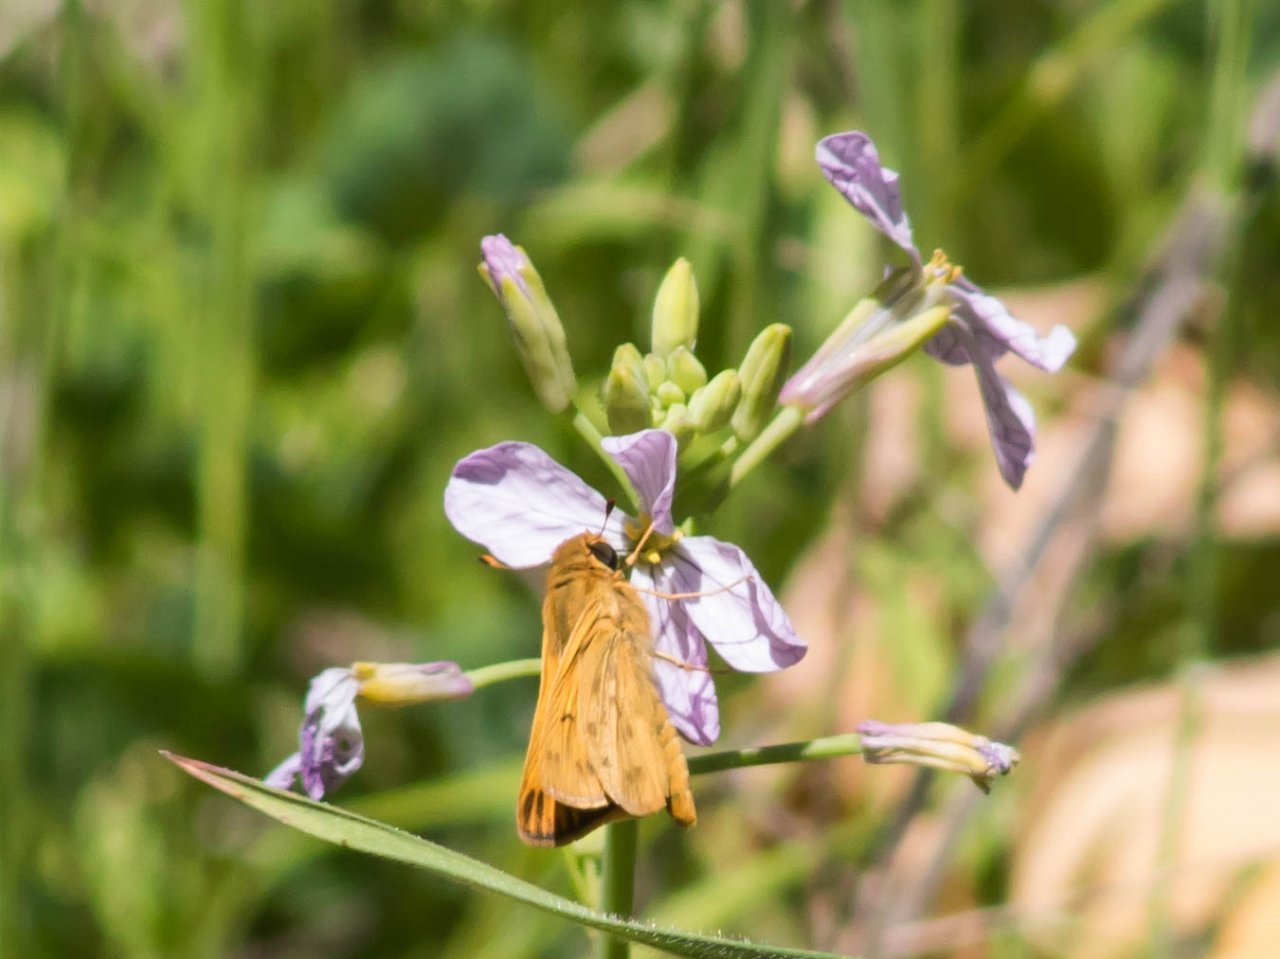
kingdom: Animalia
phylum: Arthropoda
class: Insecta
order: Lepidoptera
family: Hesperiidae
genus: Hylephila
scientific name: Hylephila phyleus
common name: Fiery Skipper
